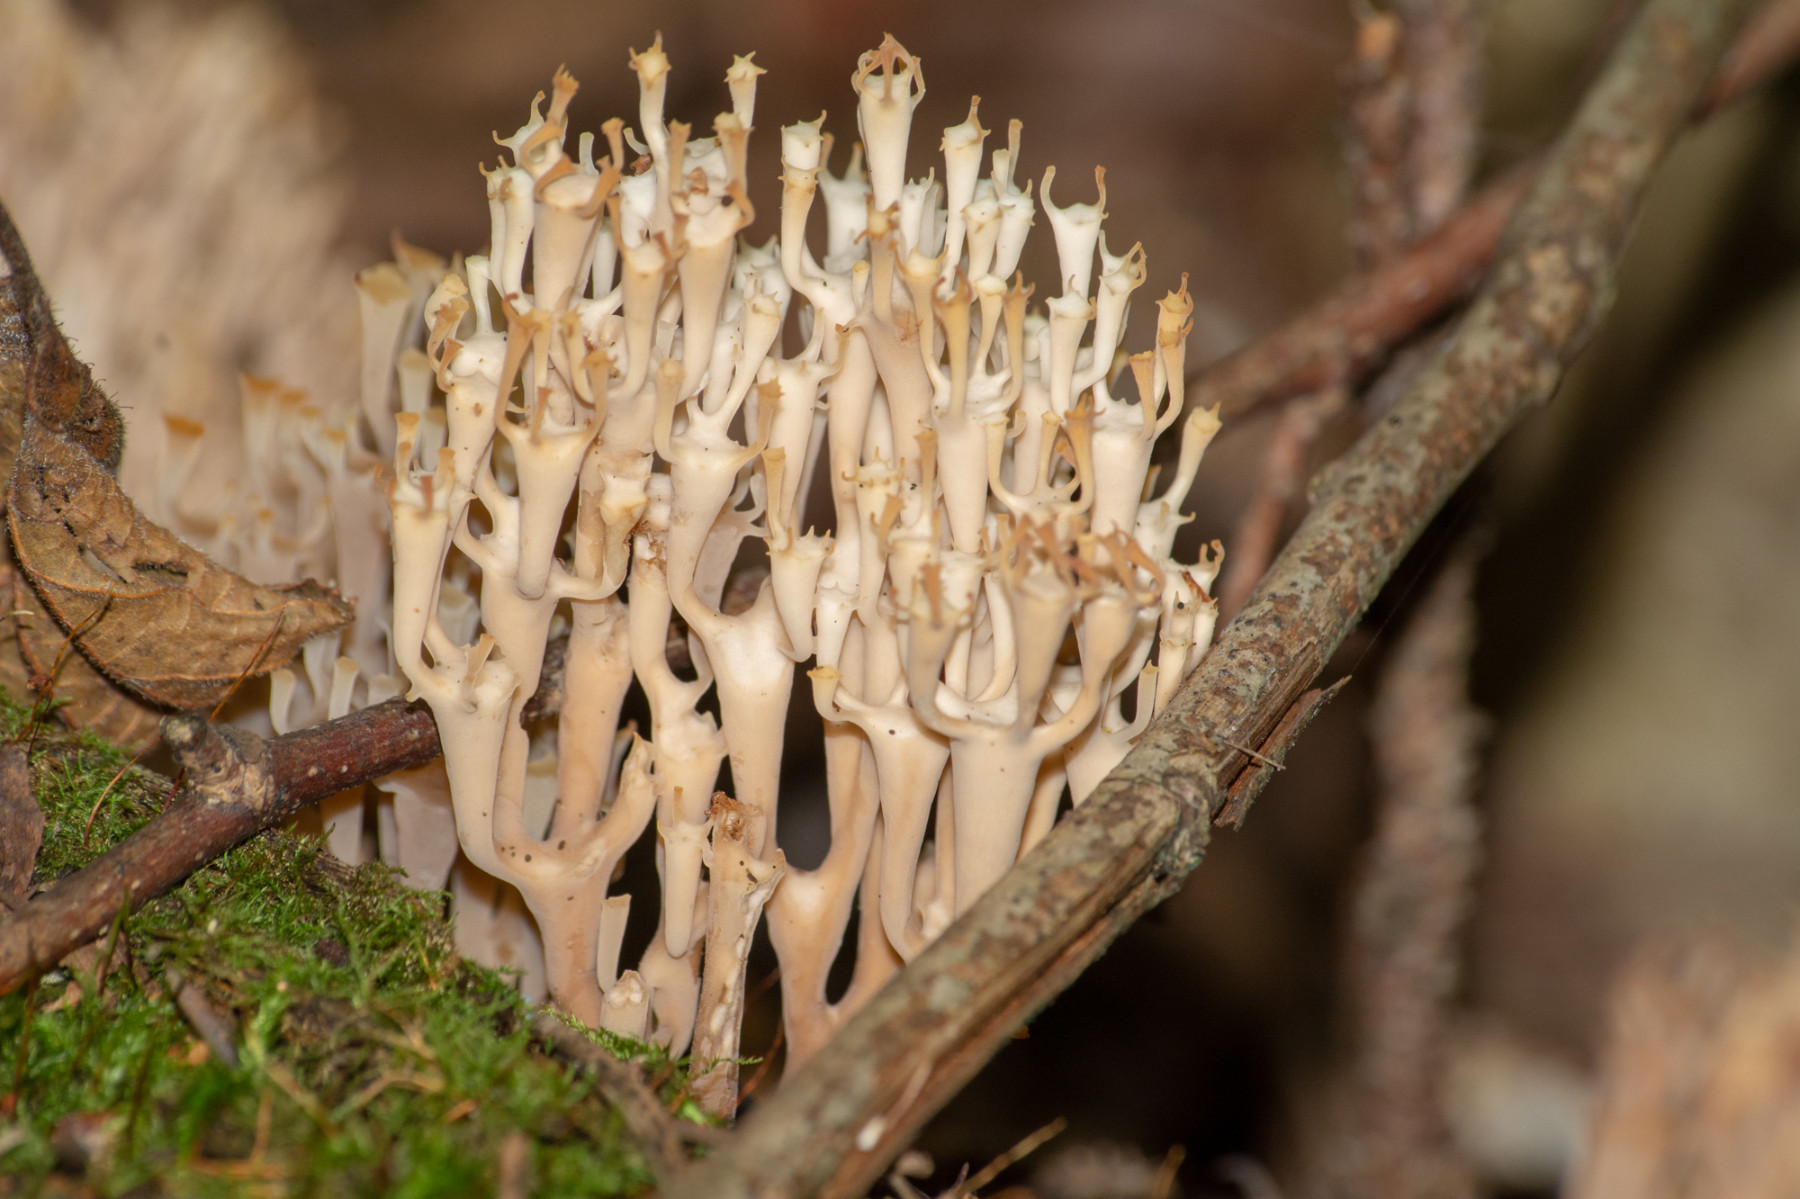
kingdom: Fungi
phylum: Basidiomycota
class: Agaricomycetes
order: Russulales
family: Auriscalpiaceae
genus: Artomyces
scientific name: Artomyces pyxidatus
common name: kandelabersvamp
